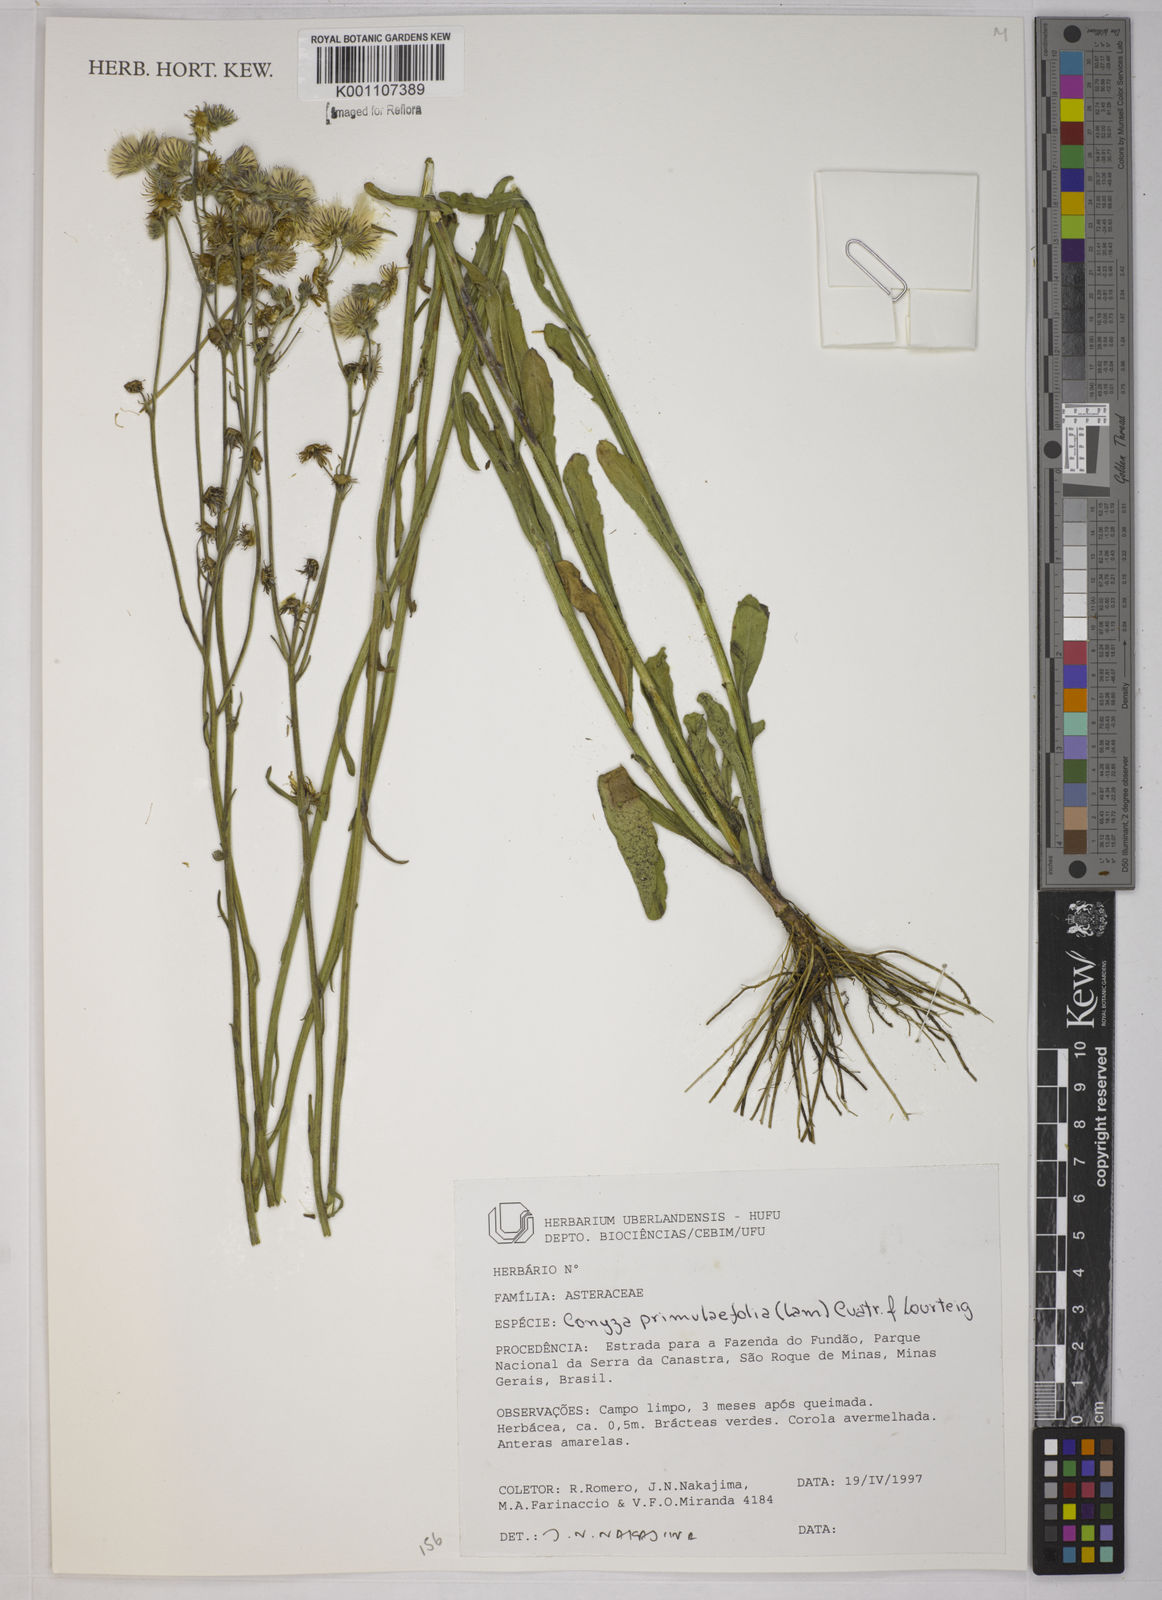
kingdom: Plantae
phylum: Tracheophyta
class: Magnoliopsida
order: Asterales
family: Asteraceae
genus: Conyza
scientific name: Conyza
